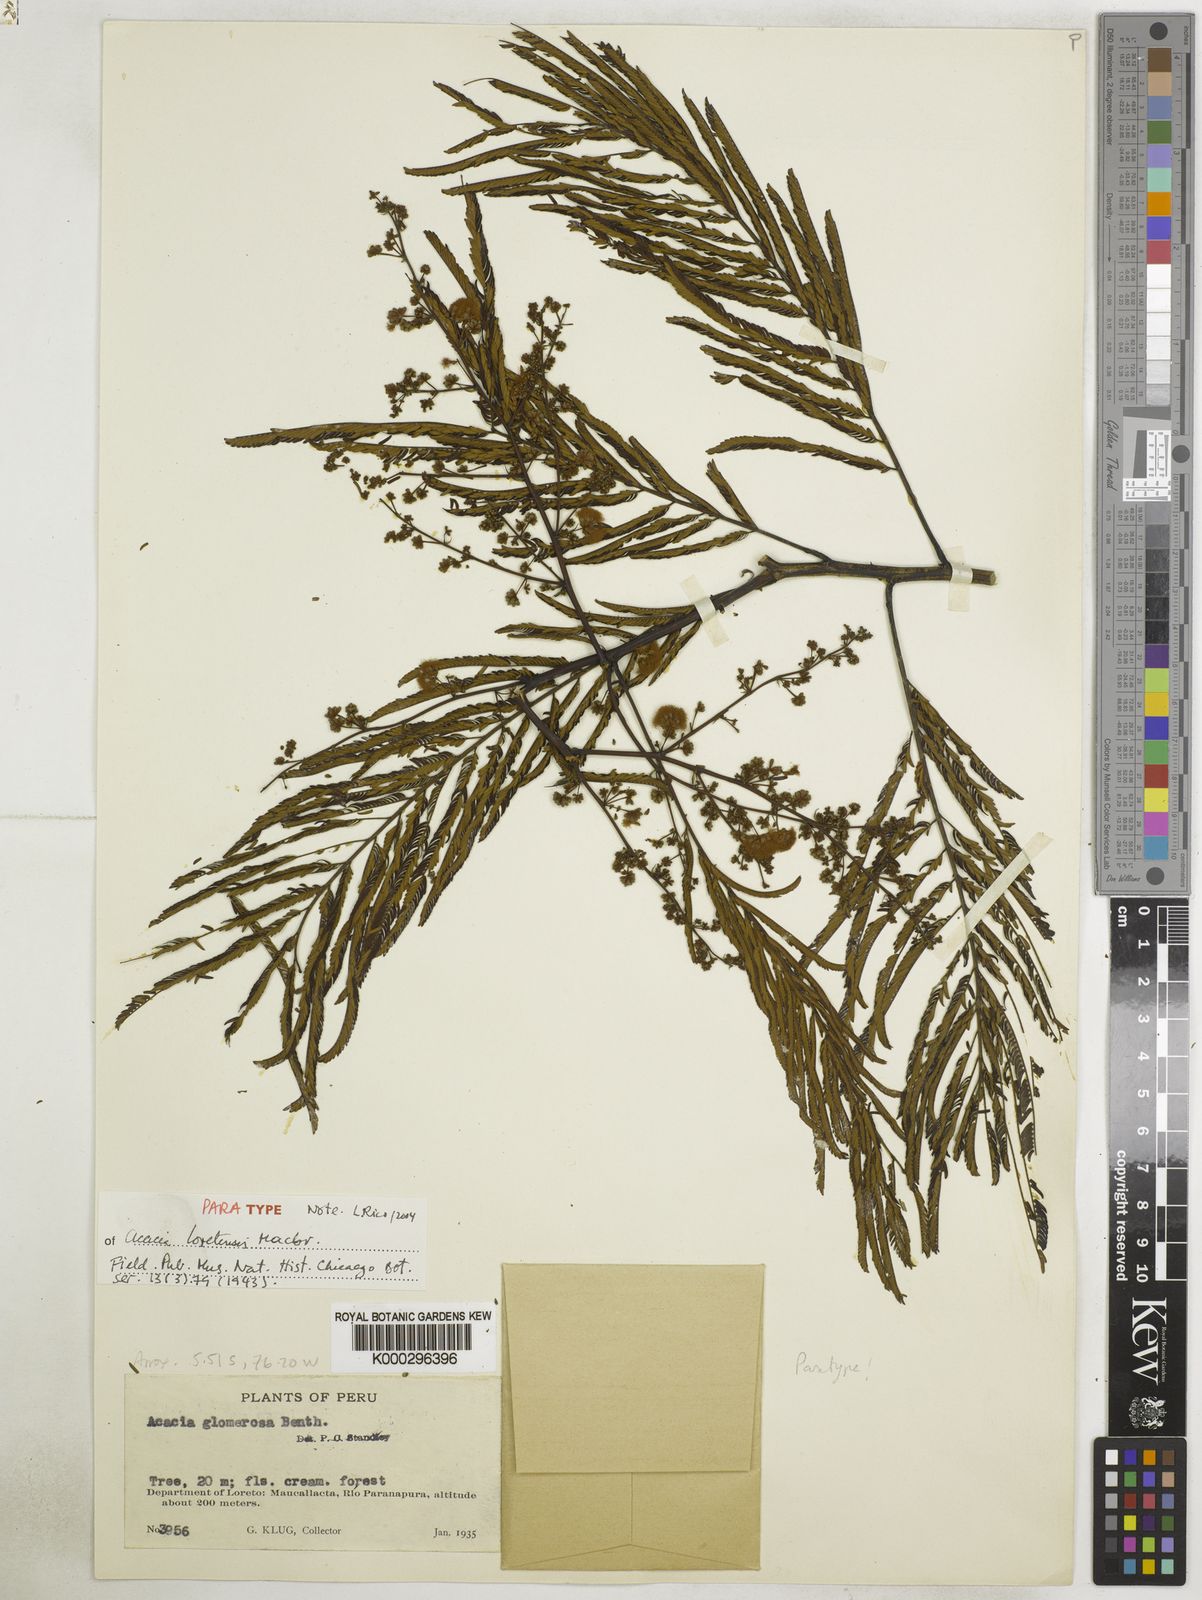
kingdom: Plantae
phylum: Tracheophyta
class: Magnoliopsida
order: Fabales
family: Fabaceae
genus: Parasenegalia
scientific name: Parasenegalia visco
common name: Visco
